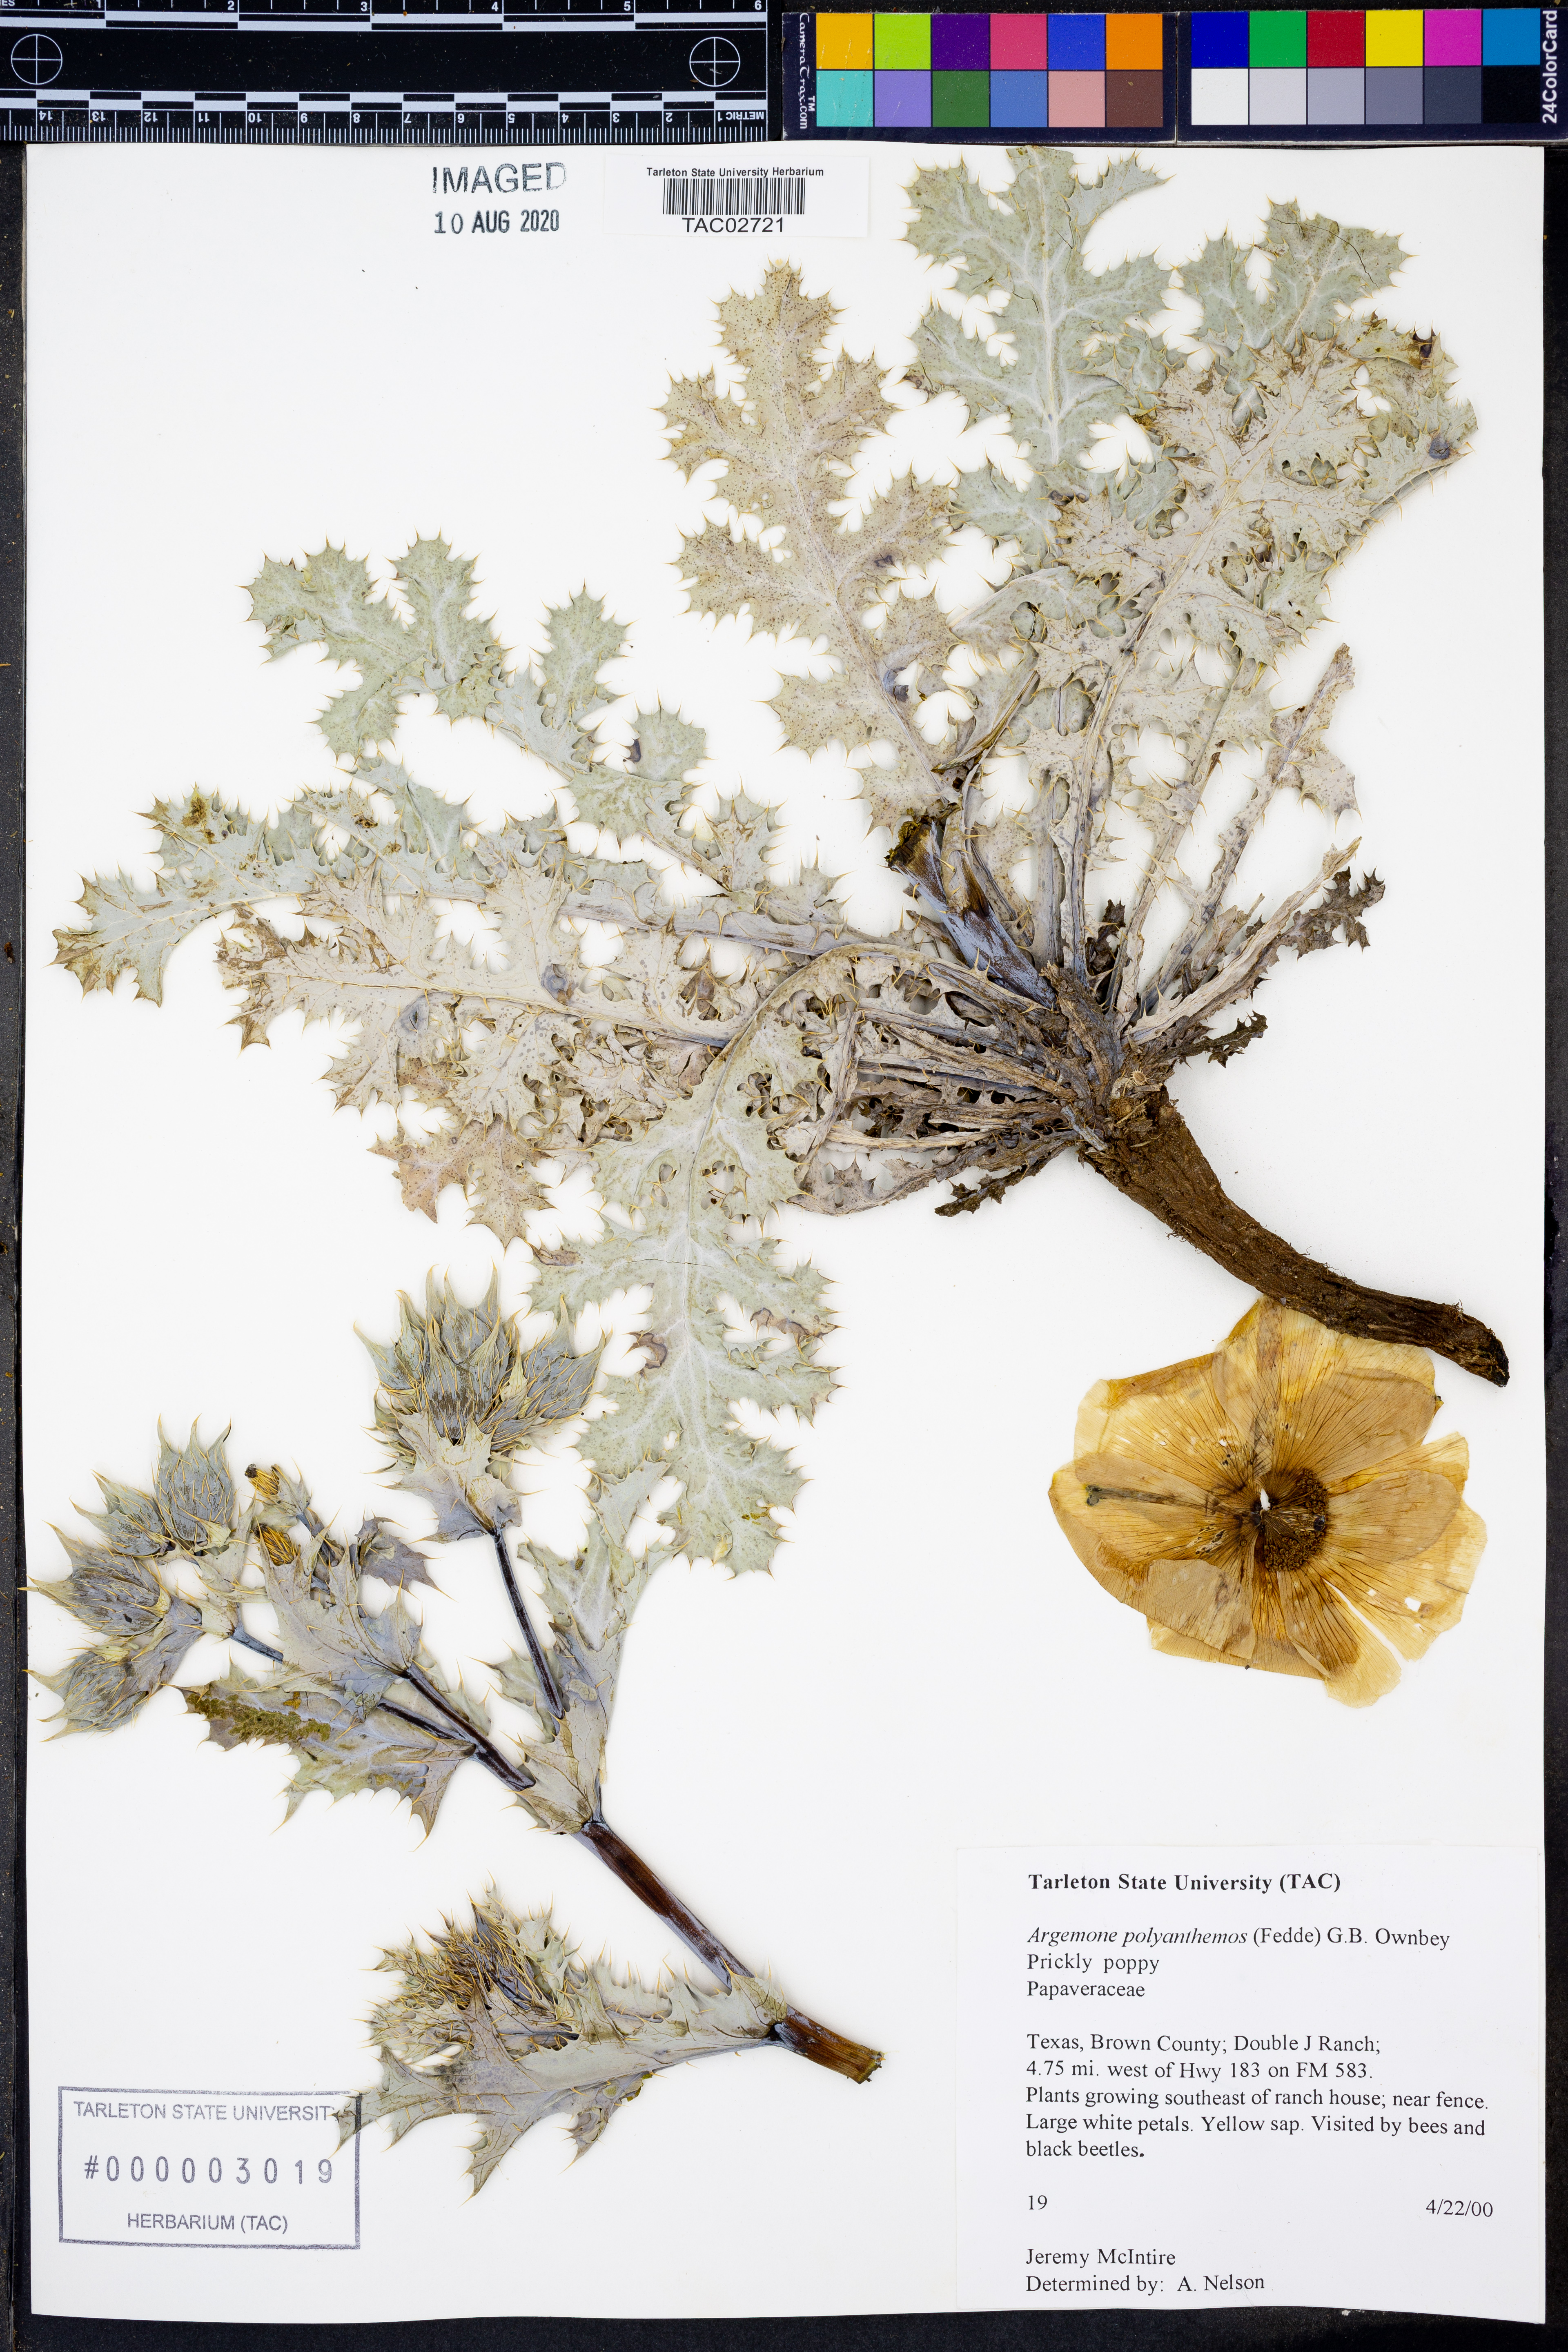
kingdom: Plantae
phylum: Tracheophyta
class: Magnoliopsida
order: Ranunculales
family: Papaveraceae
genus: Argemone
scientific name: Argemone polyanthemos
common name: Plains prickly-poppy
